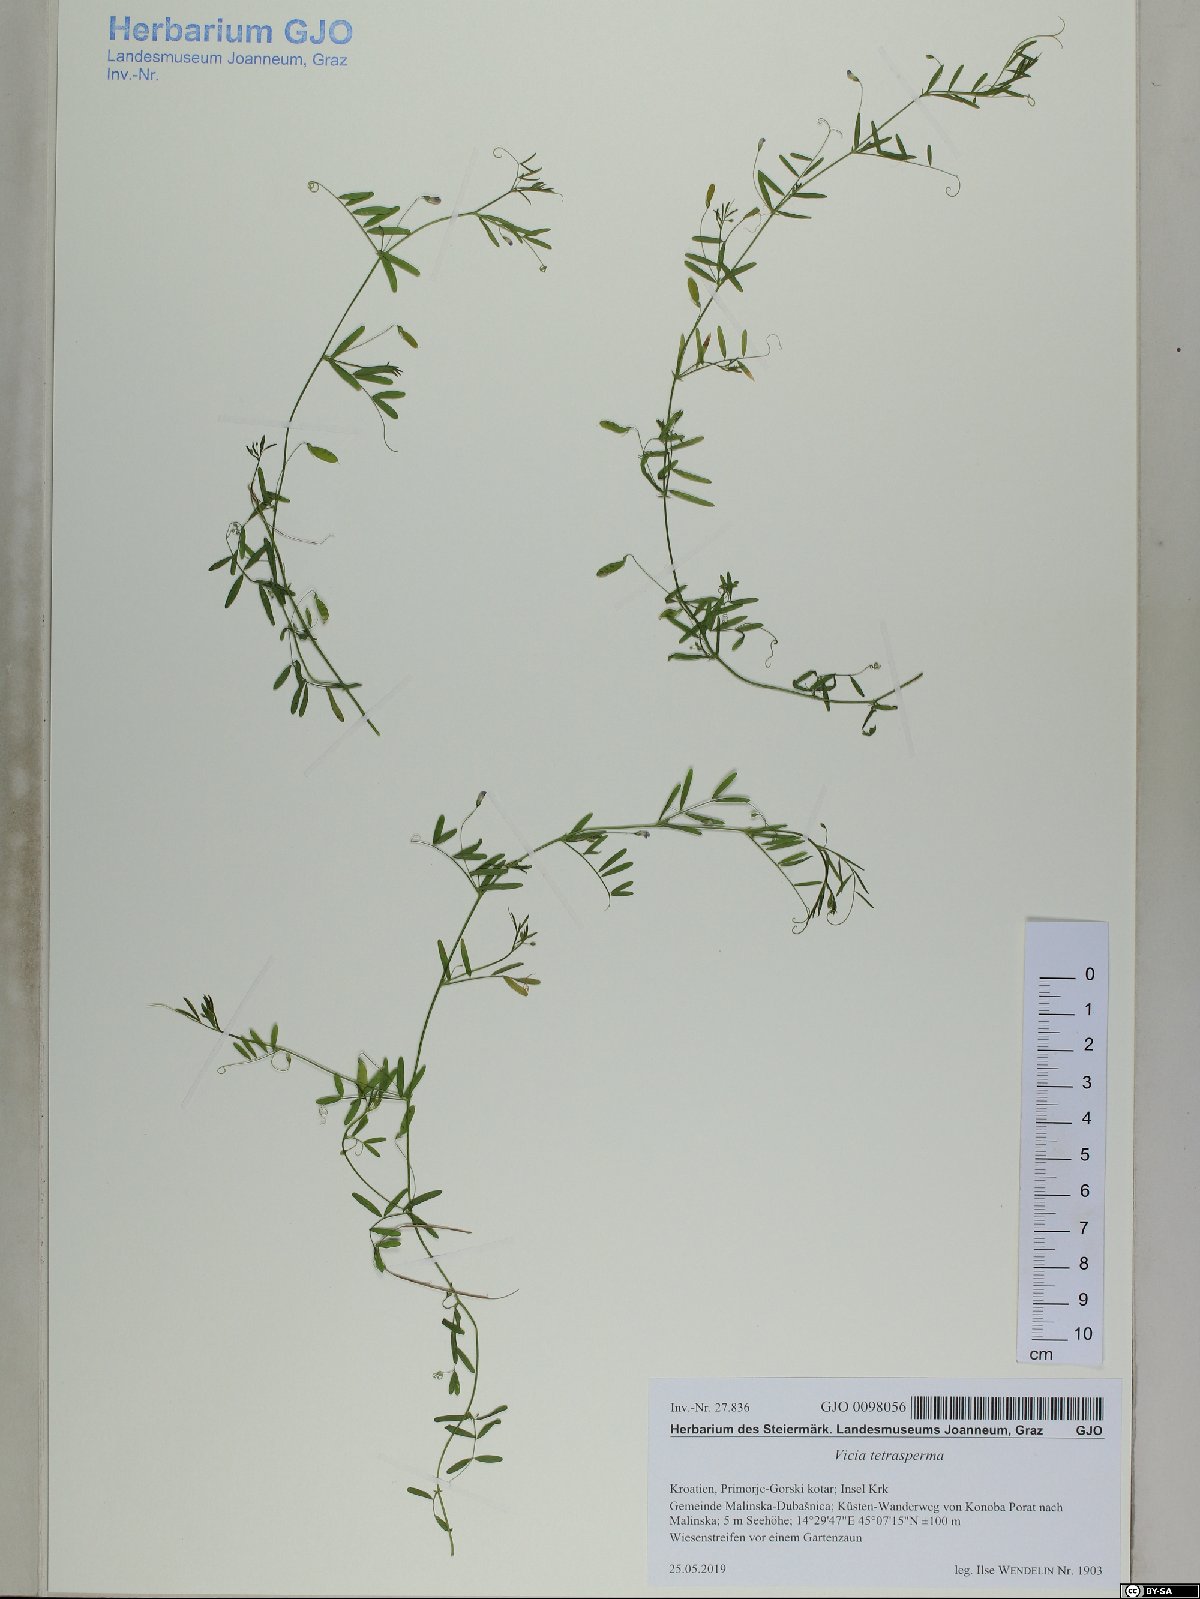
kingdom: Plantae
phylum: Tracheophyta
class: Magnoliopsida
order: Fabales
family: Fabaceae
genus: Vicia
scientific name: Vicia tetrasperma
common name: Smooth tare
